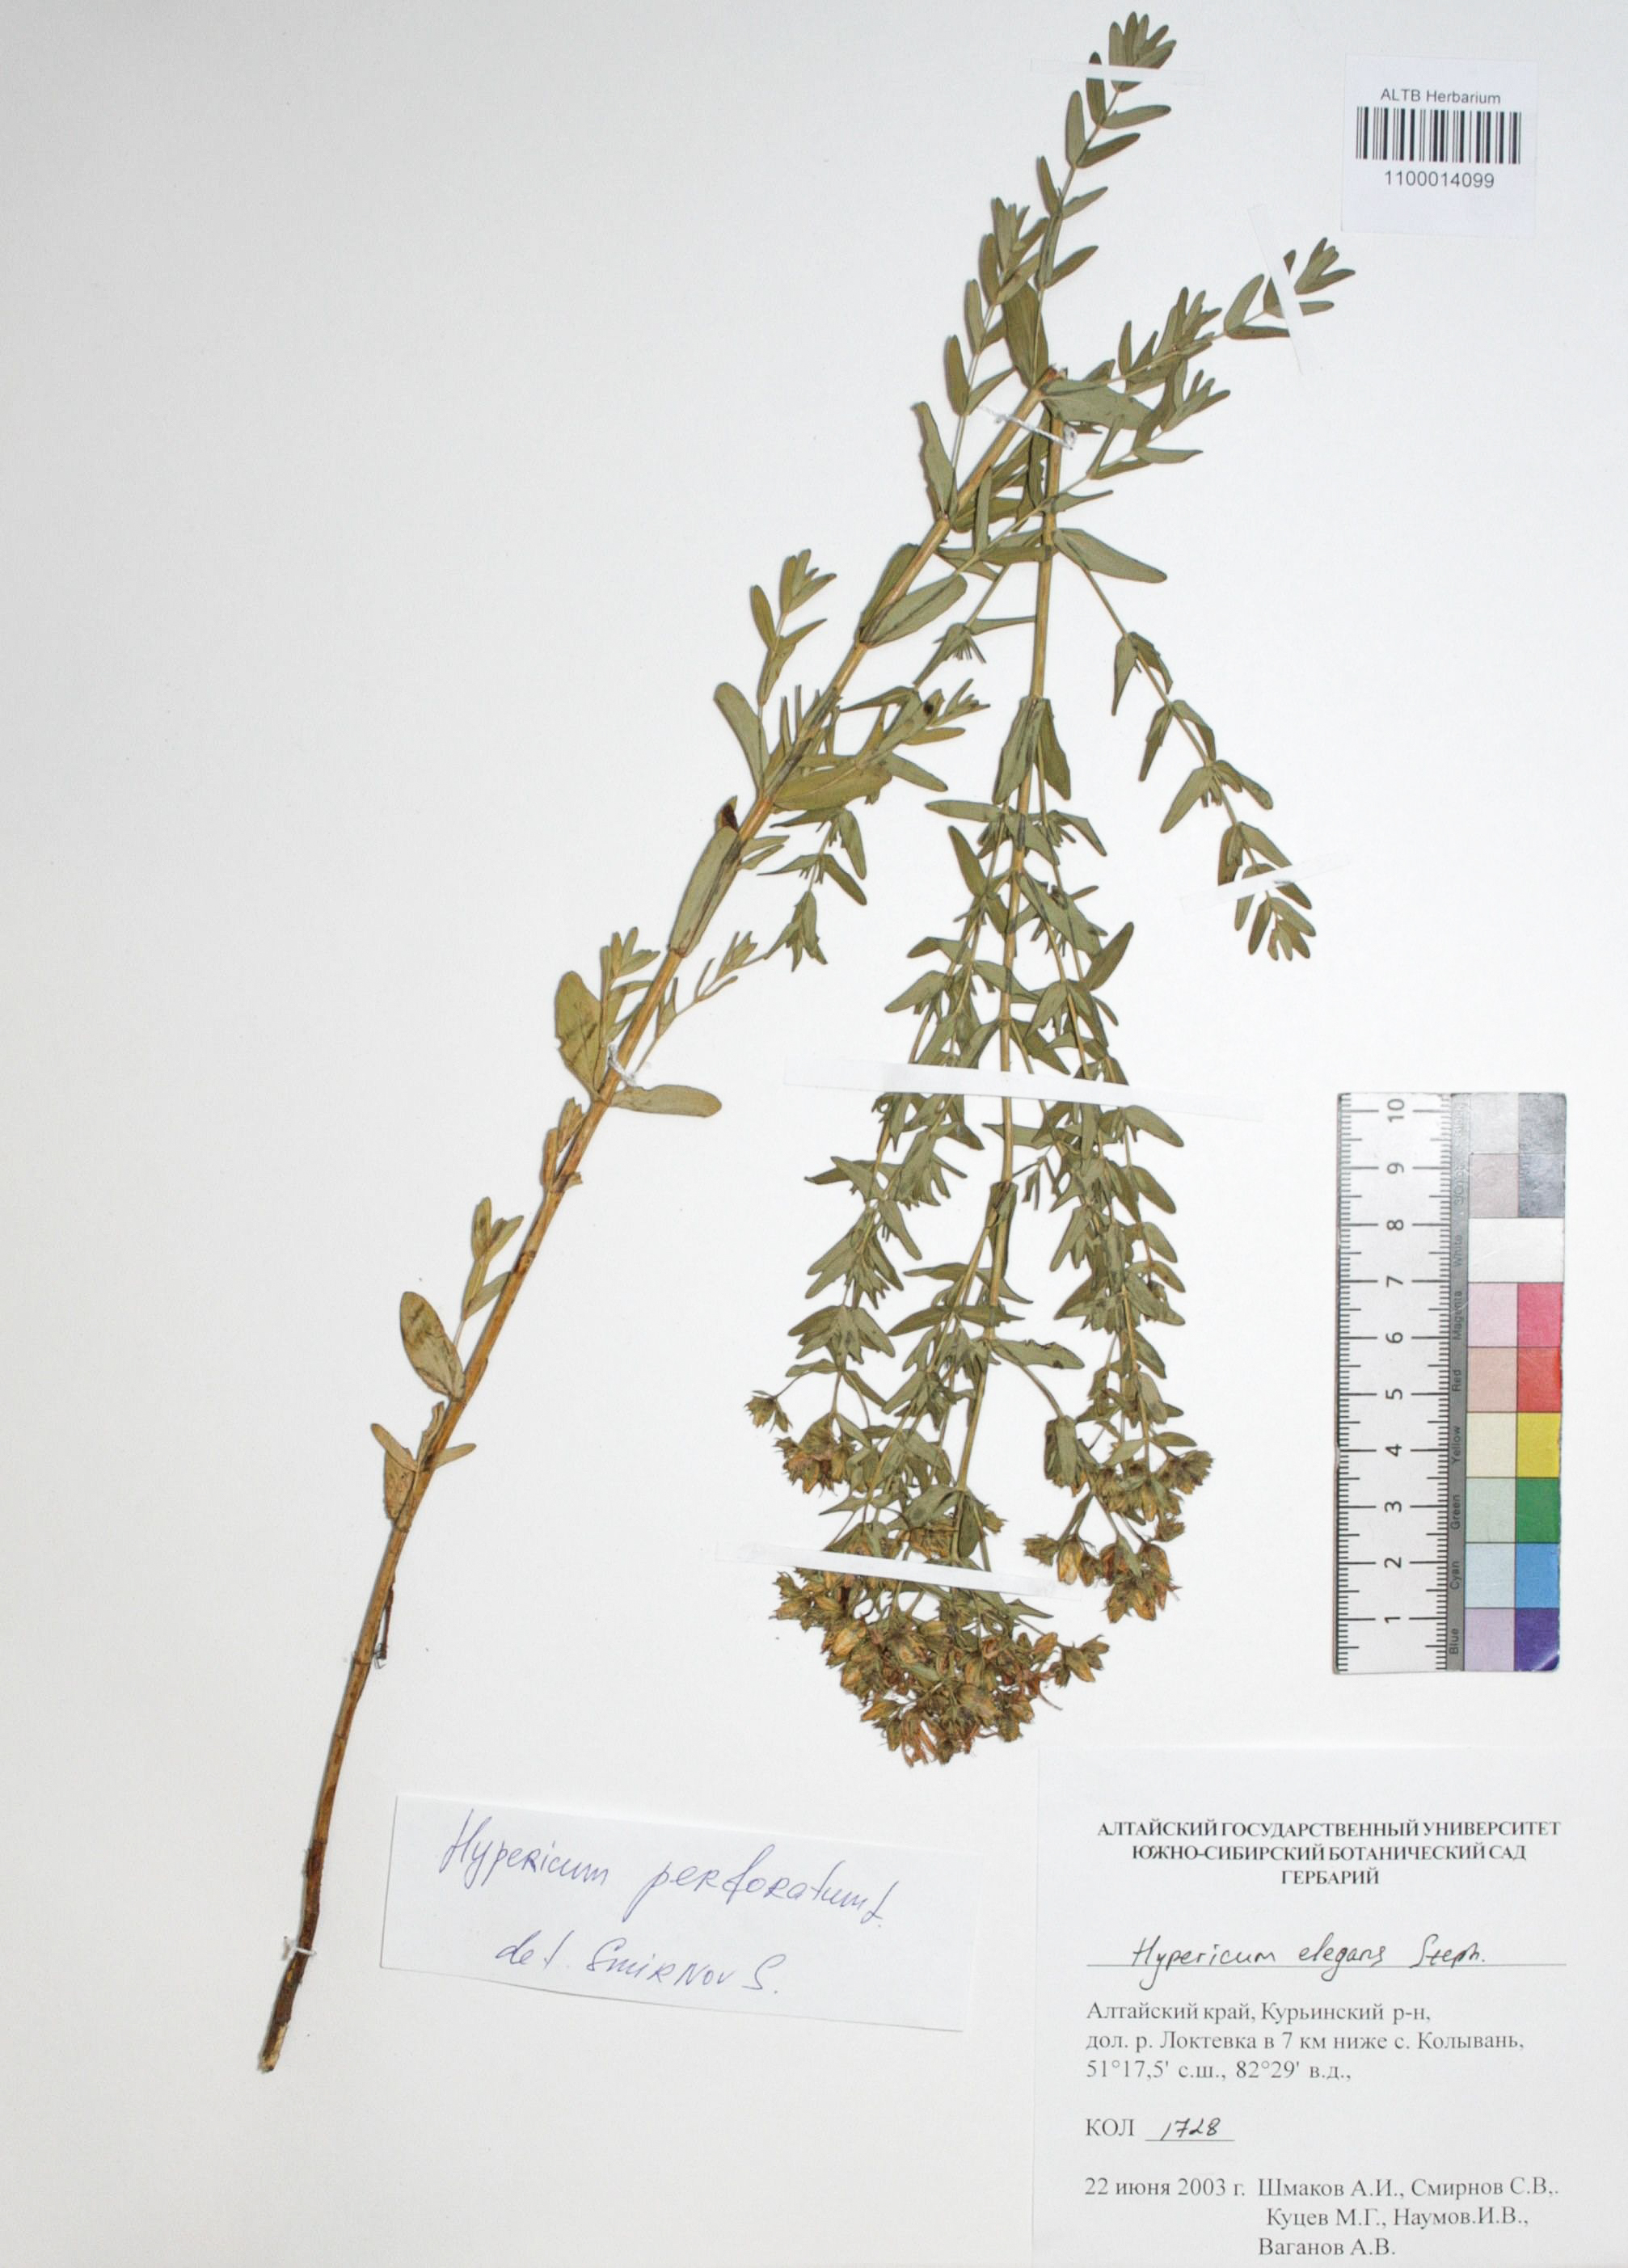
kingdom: Plantae
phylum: Tracheophyta
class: Magnoliopsida
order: Malpighiales
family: Hypericaceae
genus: Hypericum
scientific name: Hypericum perforatum
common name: Common st. johnswort
